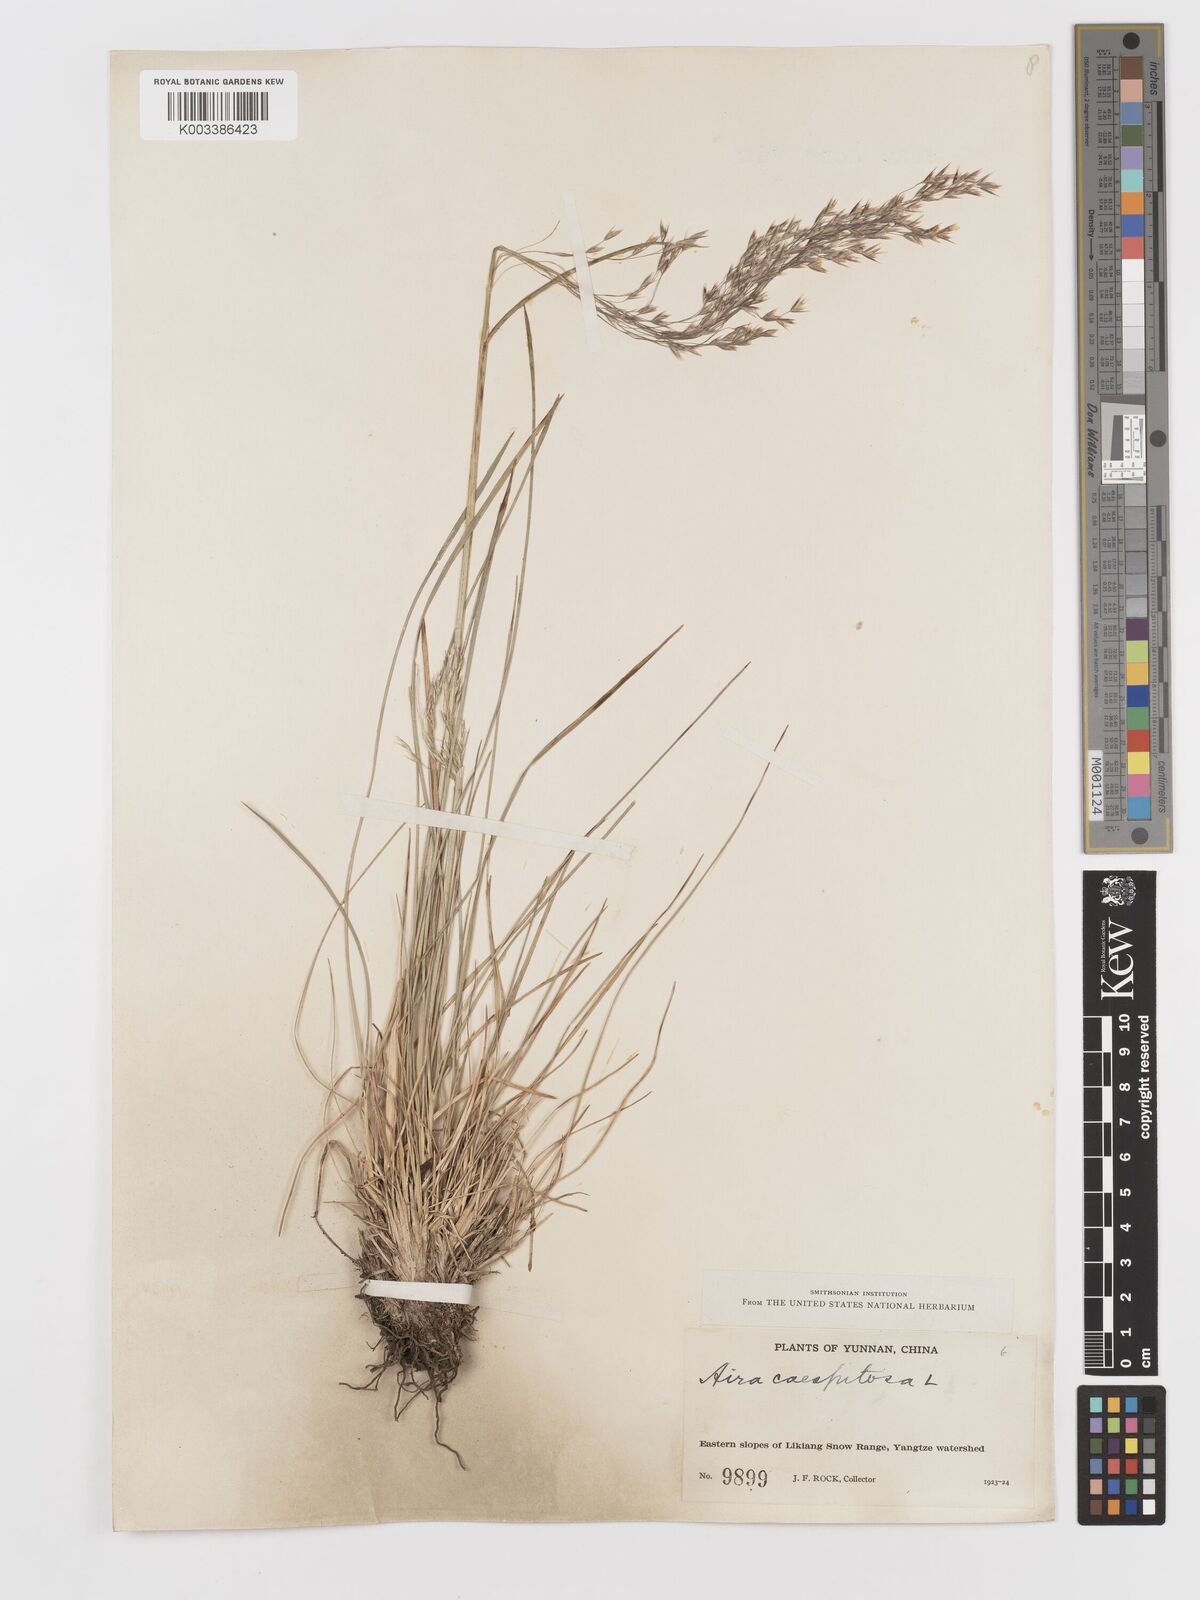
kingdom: Plantae
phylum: Tracheophyta
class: Liliopsida
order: Poales
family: Poaceae
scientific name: Poaceae
